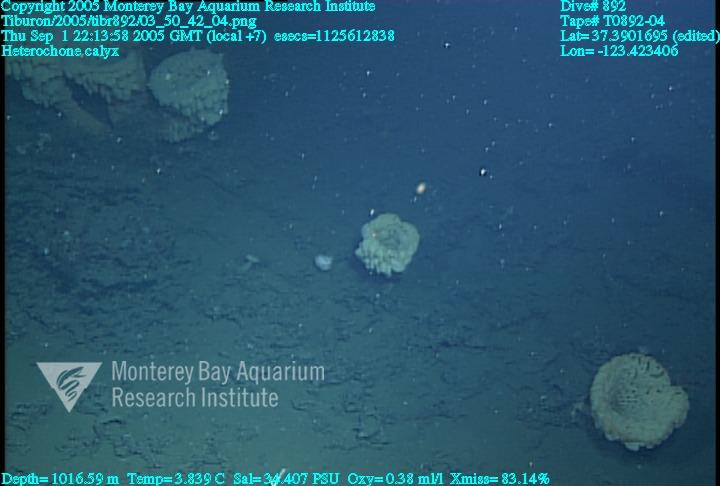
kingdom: Animalia
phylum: Porifera
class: Hexactinellida
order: Sceptrulophora
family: Aphrocallistidae
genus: Heterochone
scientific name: Heterochone calyx
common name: Fingered goblet glass sponge
